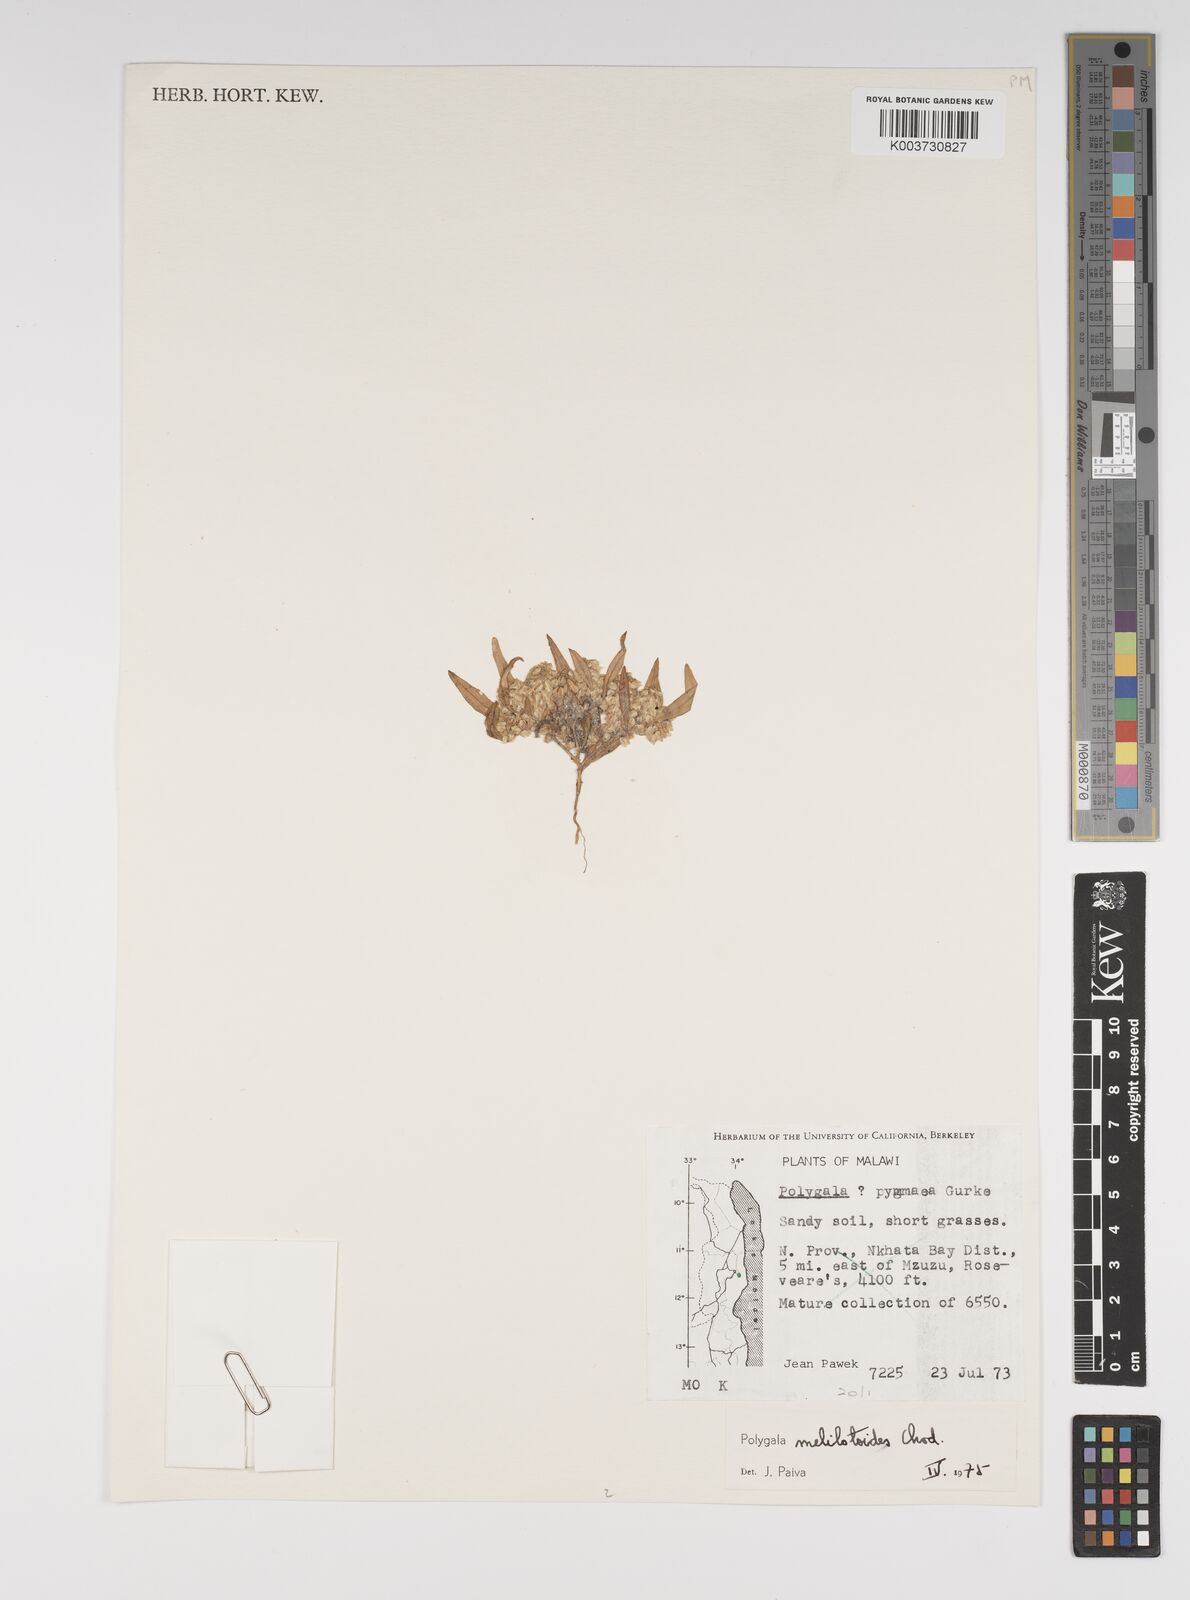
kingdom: Plantae
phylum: Tracheophyta
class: Magnoliopsida
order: Fabales
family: Polygalaceae
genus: Polygala
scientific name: Polygala melilotoides
